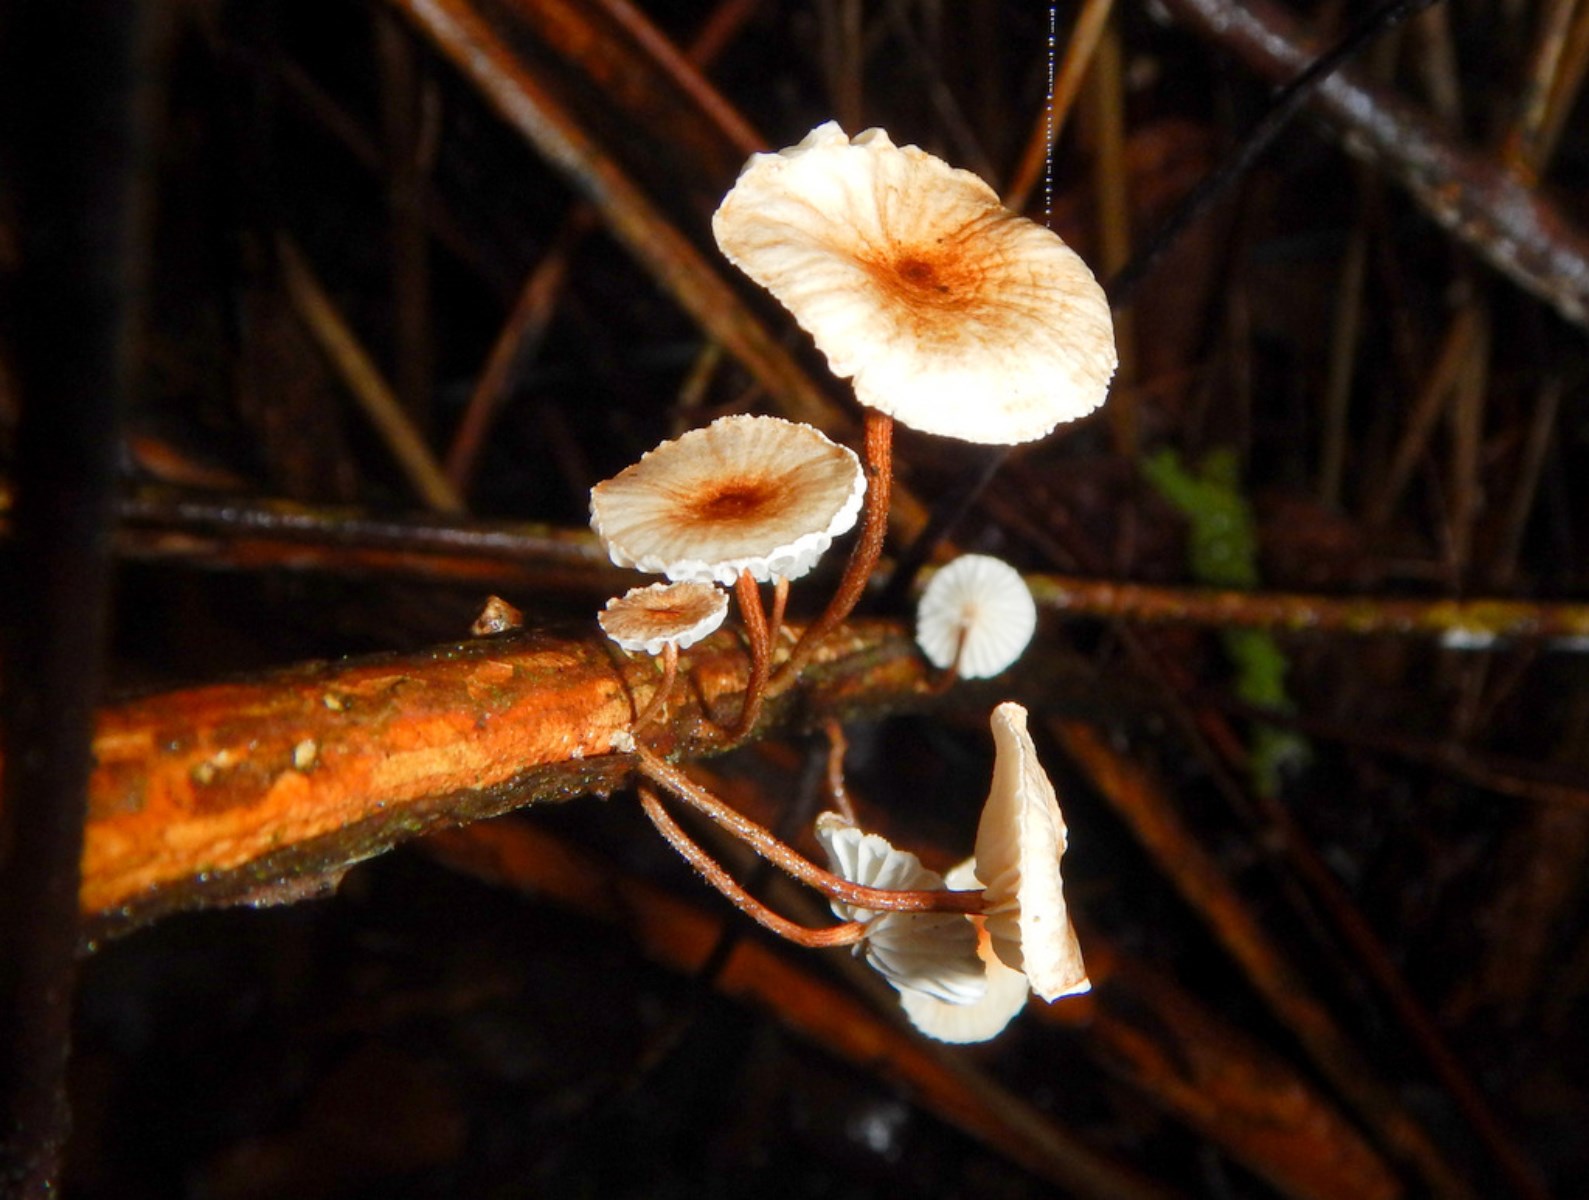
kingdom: Fungi
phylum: Basidiomycota
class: Agaricomycetes
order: Agaricales
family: Marasmiaceae
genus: Crinipellis
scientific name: Crinipellis scabella
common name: børstefod
